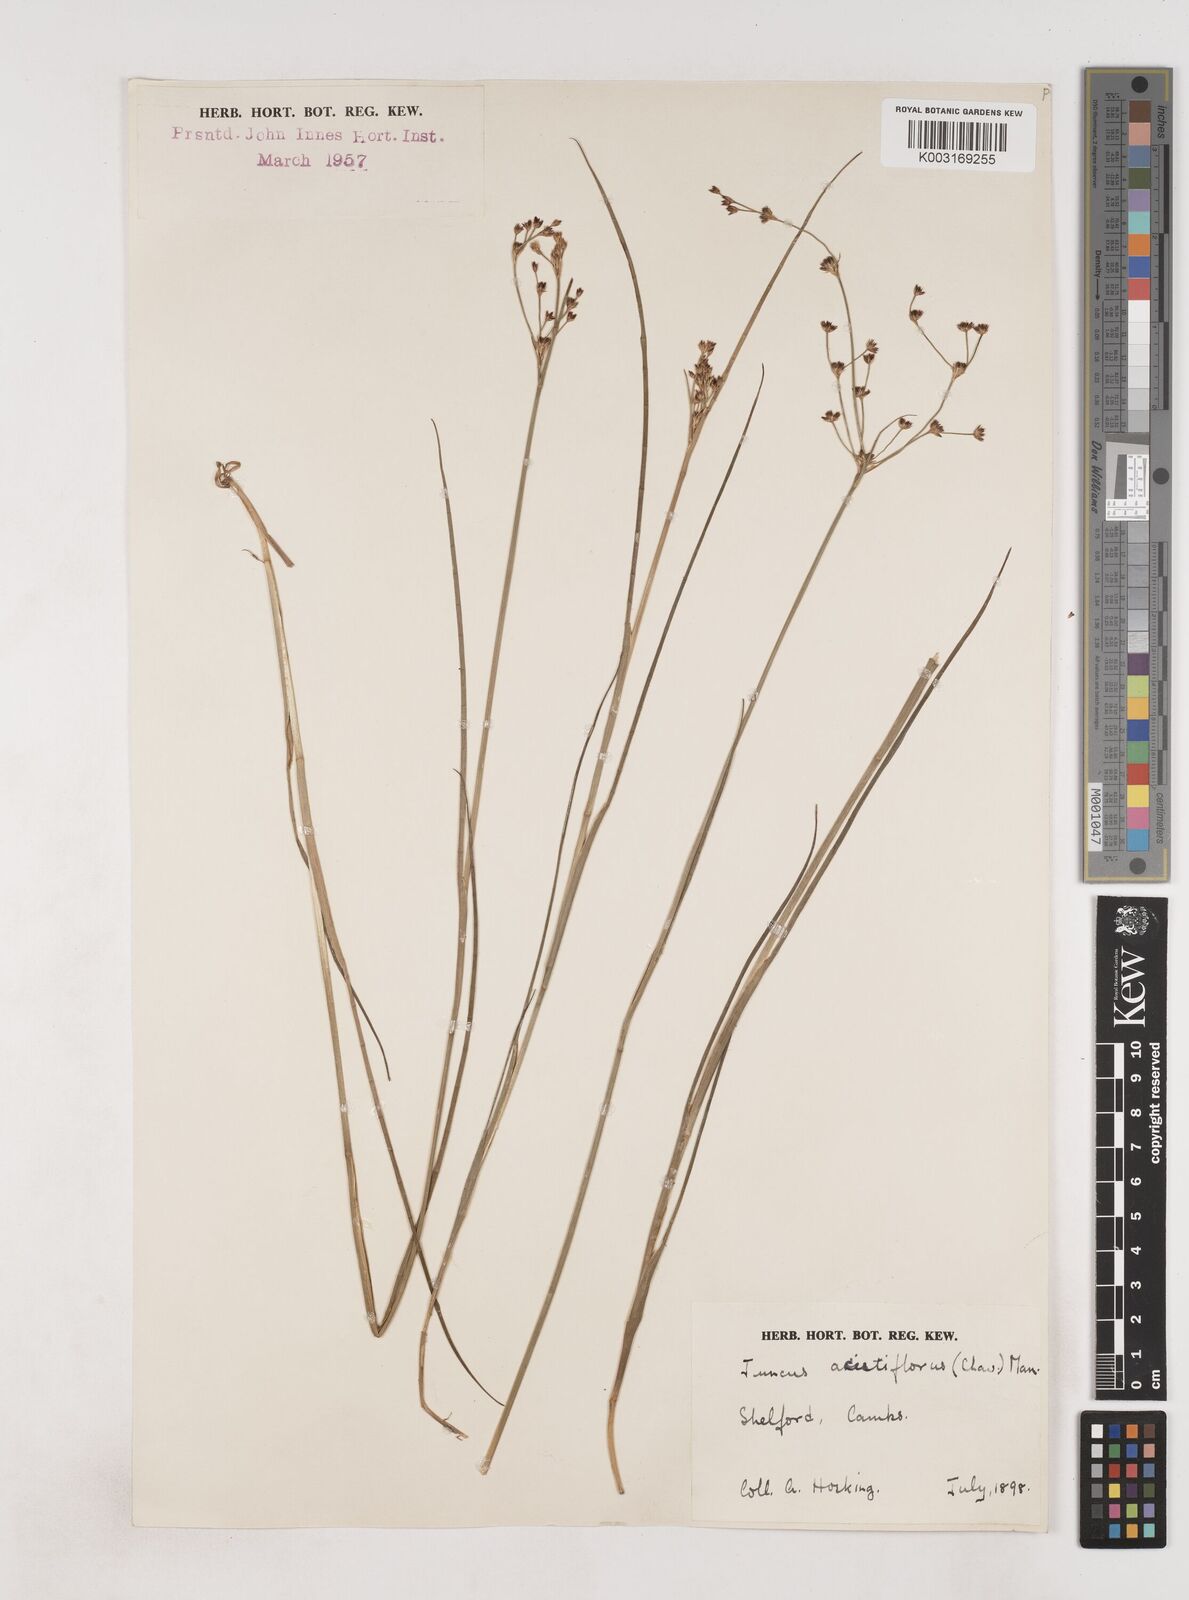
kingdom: Plantae
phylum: Tracheophyta
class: Liliopsida
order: Poales
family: Juncaceae
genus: Juncus
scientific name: Juncus acutiflorus
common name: Sharp-flowered rush
